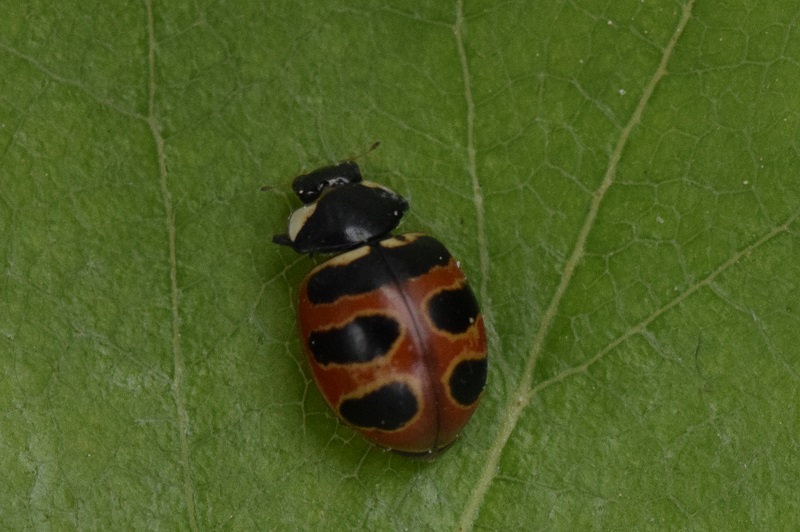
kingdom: Animalia
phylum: Arthropoda
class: Insecta
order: Coleoptera
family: Coccinellidae
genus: Coccinella
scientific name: Coccinella trifasciata
